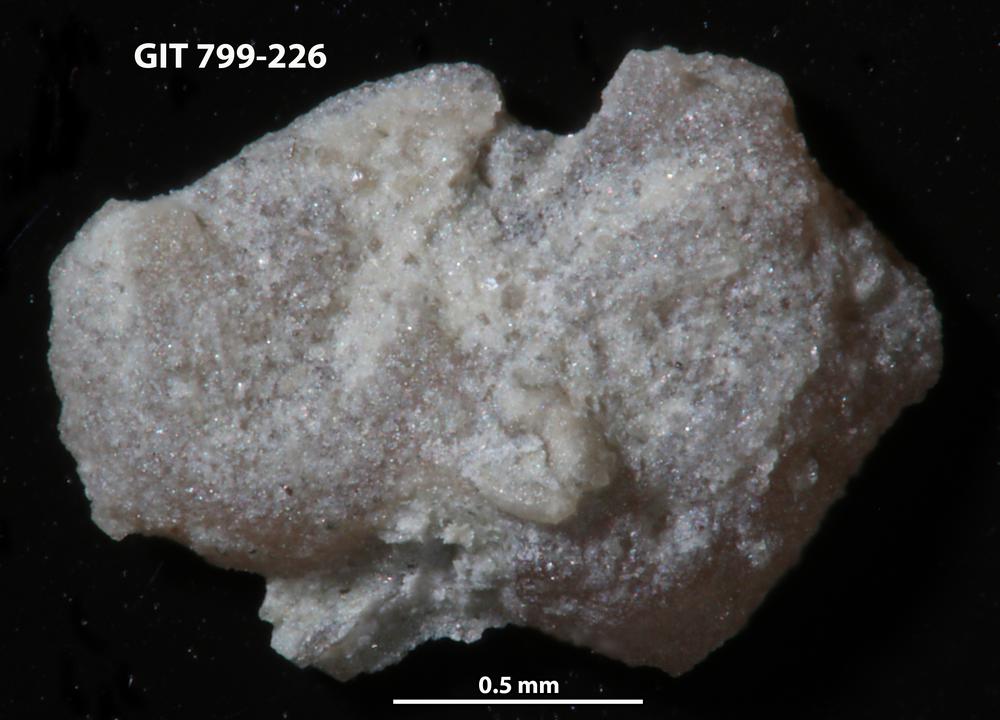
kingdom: Animalia
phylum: Echinodermata
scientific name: Echinodermata
